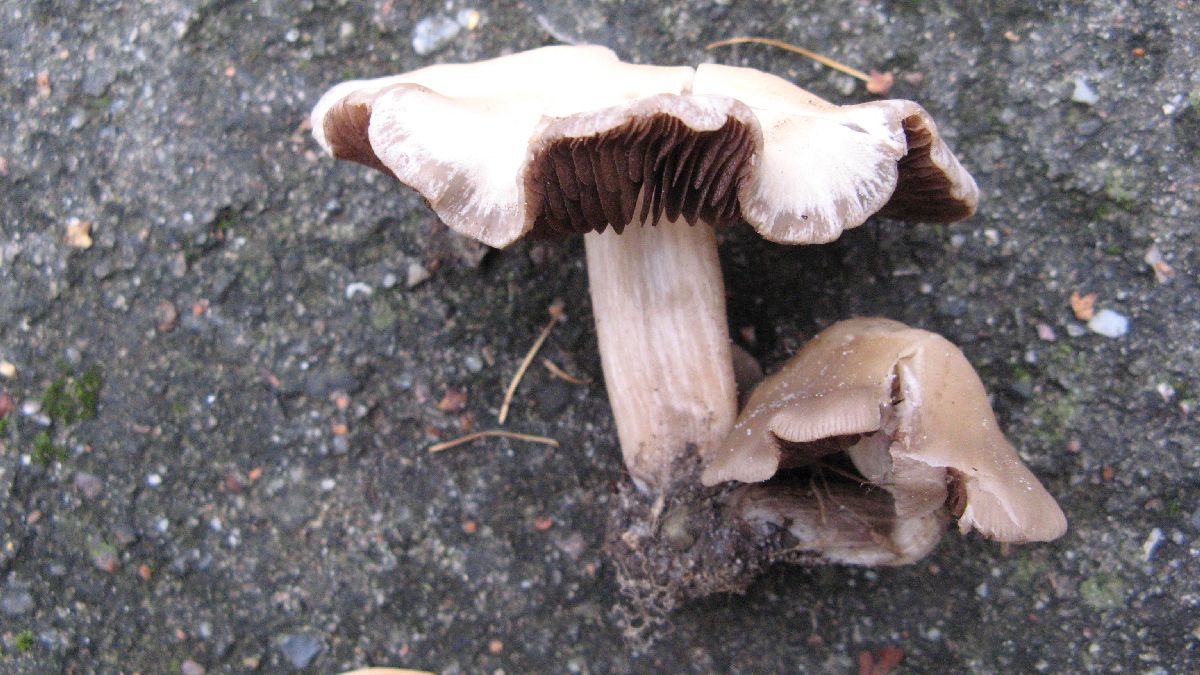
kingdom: Fungi
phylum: Basidiomycota
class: Agaricomycetes
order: Agaricales
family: Psathyrellaceae
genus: Homophron
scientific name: Homophron spadiceum
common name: daddelbrun mørkhat
